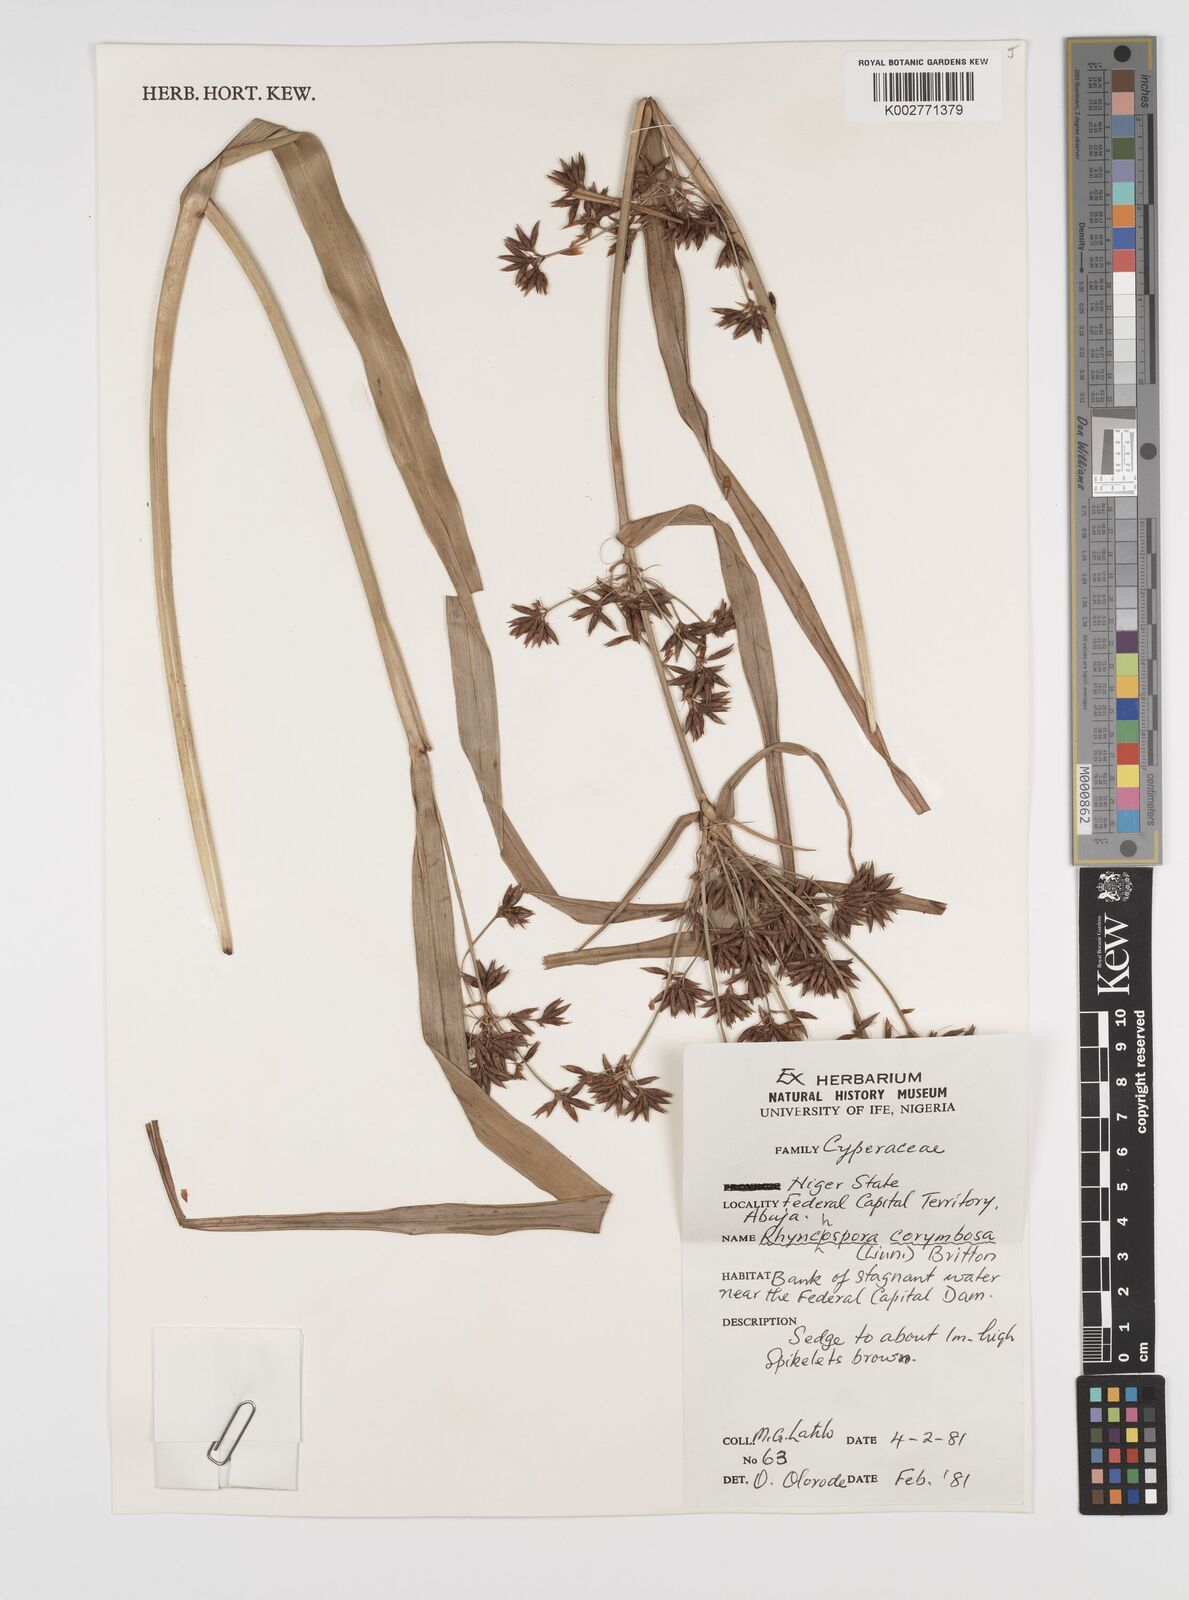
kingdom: Plantae
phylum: Tracheophyta
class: Liliopsida
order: Poales
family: Cyperaceae
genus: Rhynchospora
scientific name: Rhynchospora corymbosa
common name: Golden beak sedge
